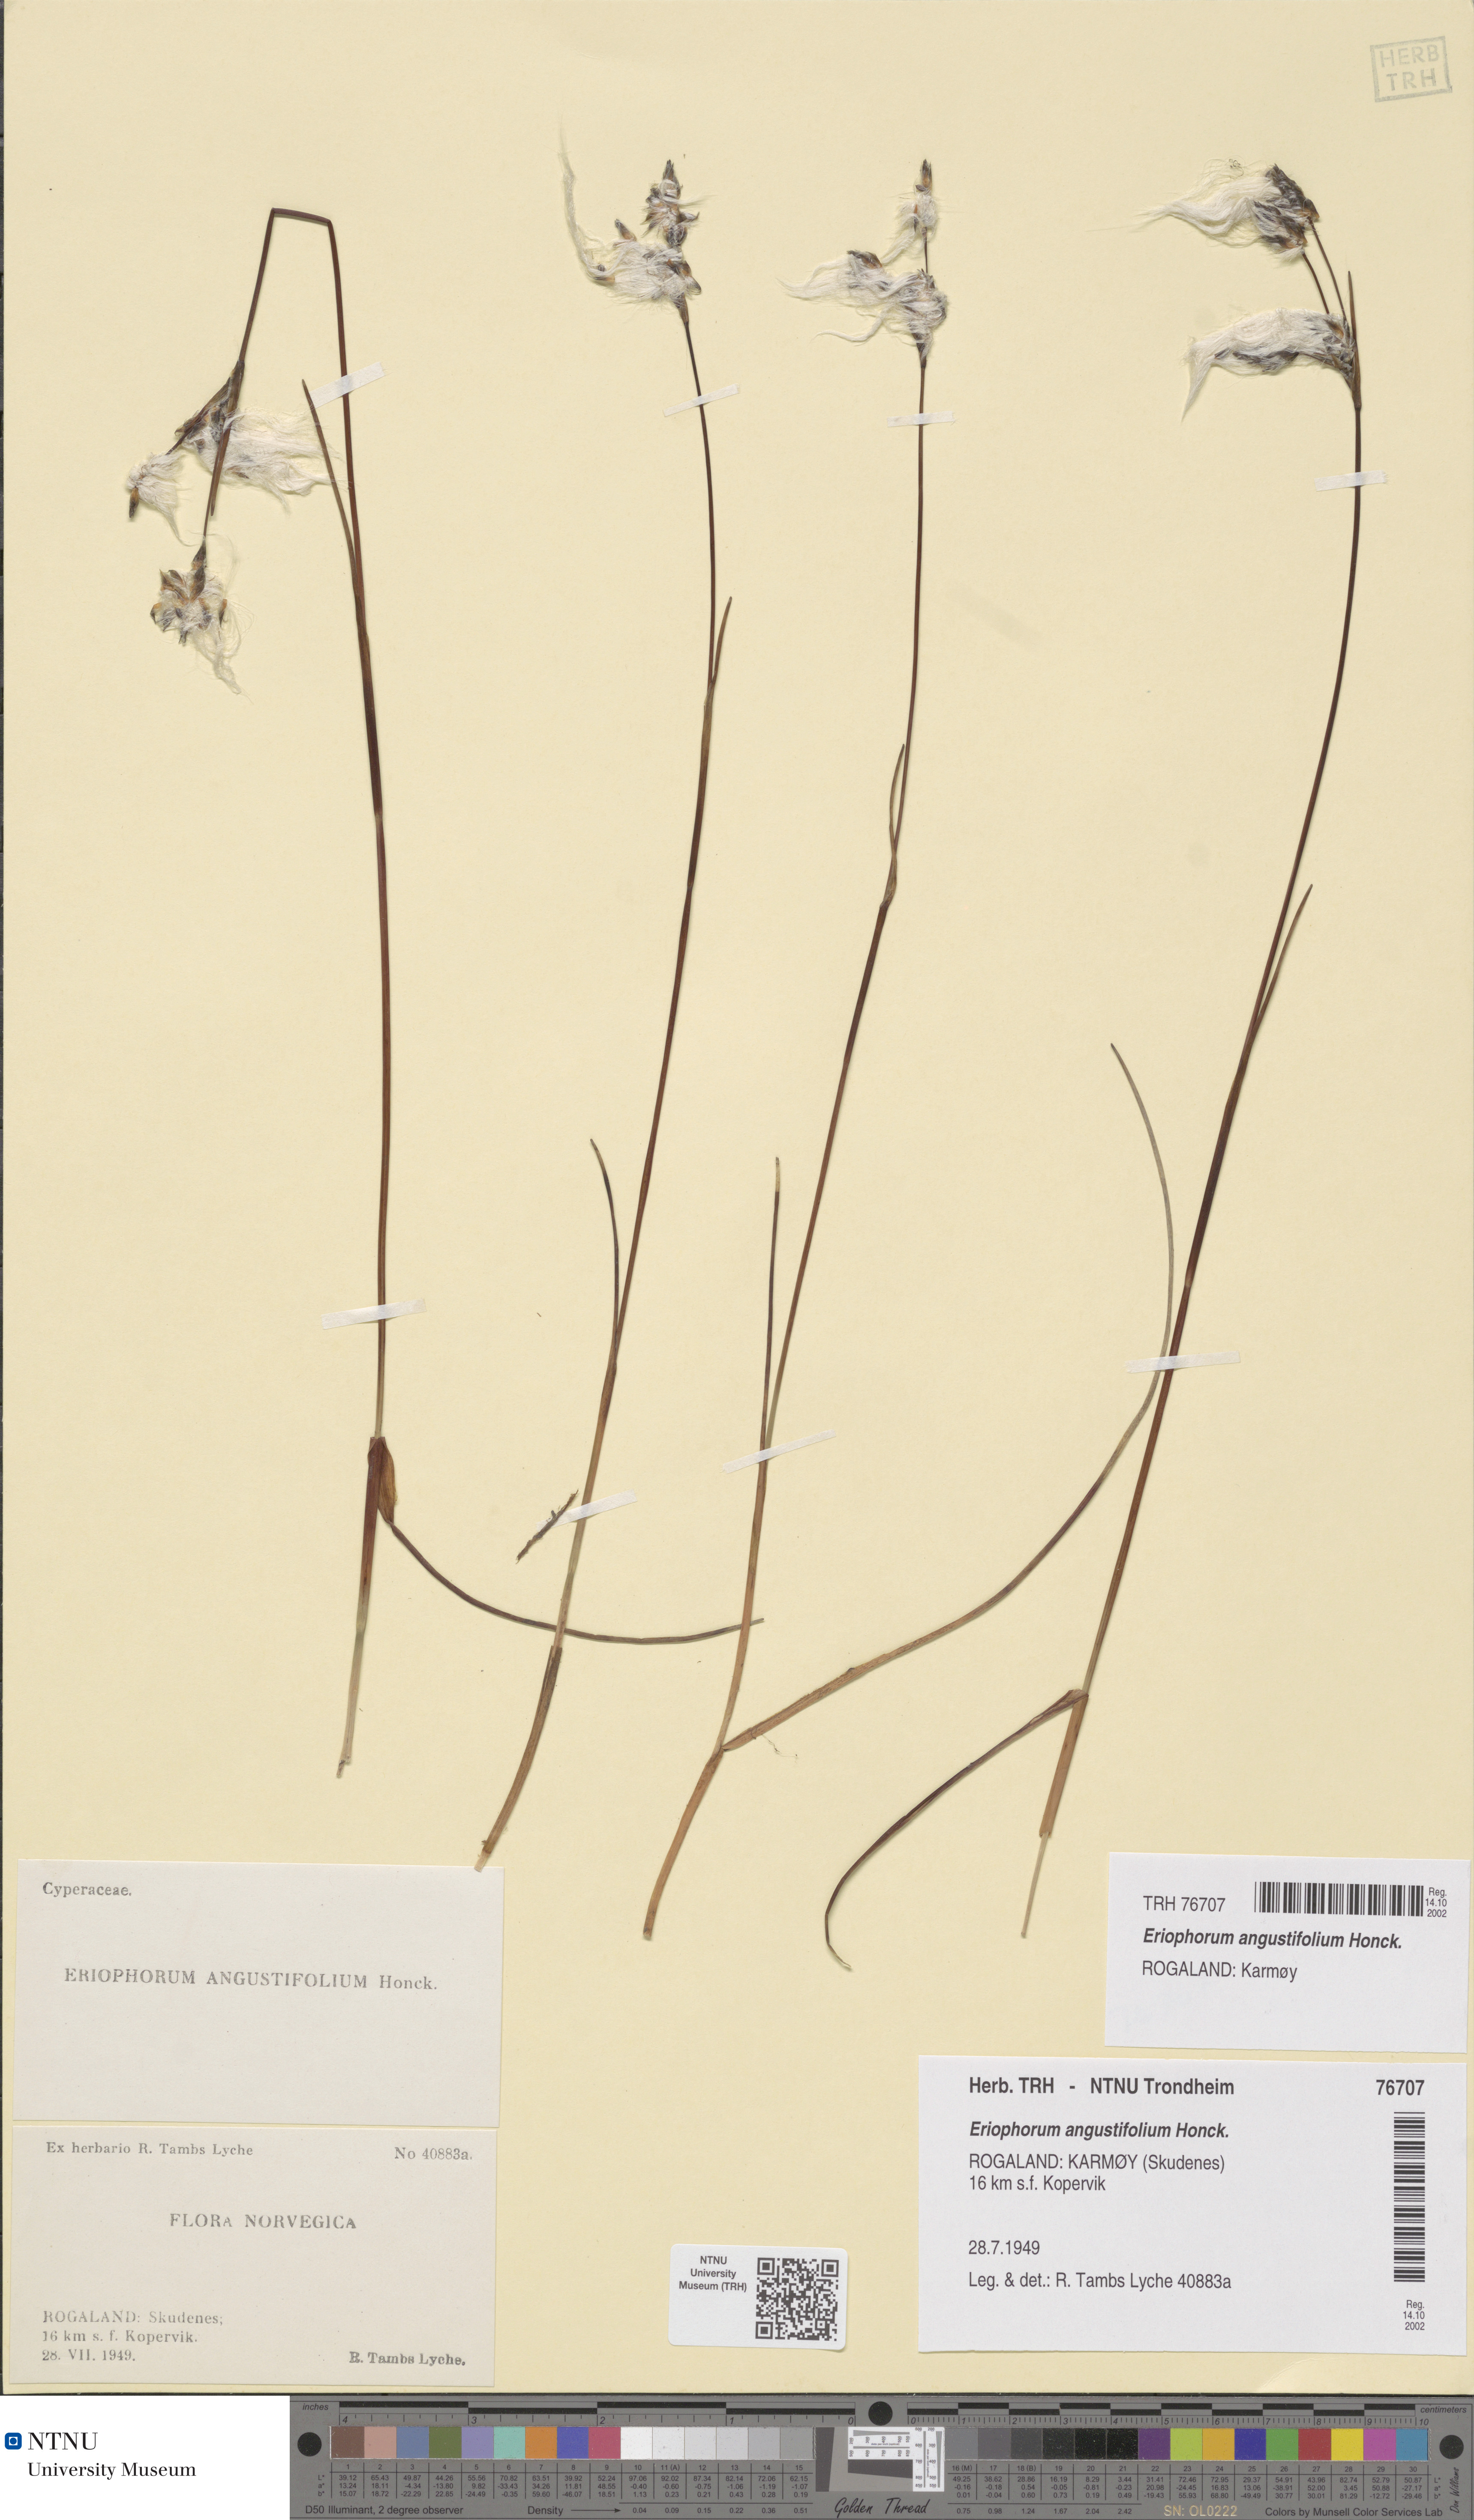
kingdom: Plantae
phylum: Tracheophyta
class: Liliopsida
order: Poales
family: Cyperaceae
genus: Eriophorum
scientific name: Eriophorum angustifolium
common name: Common cottongrass
